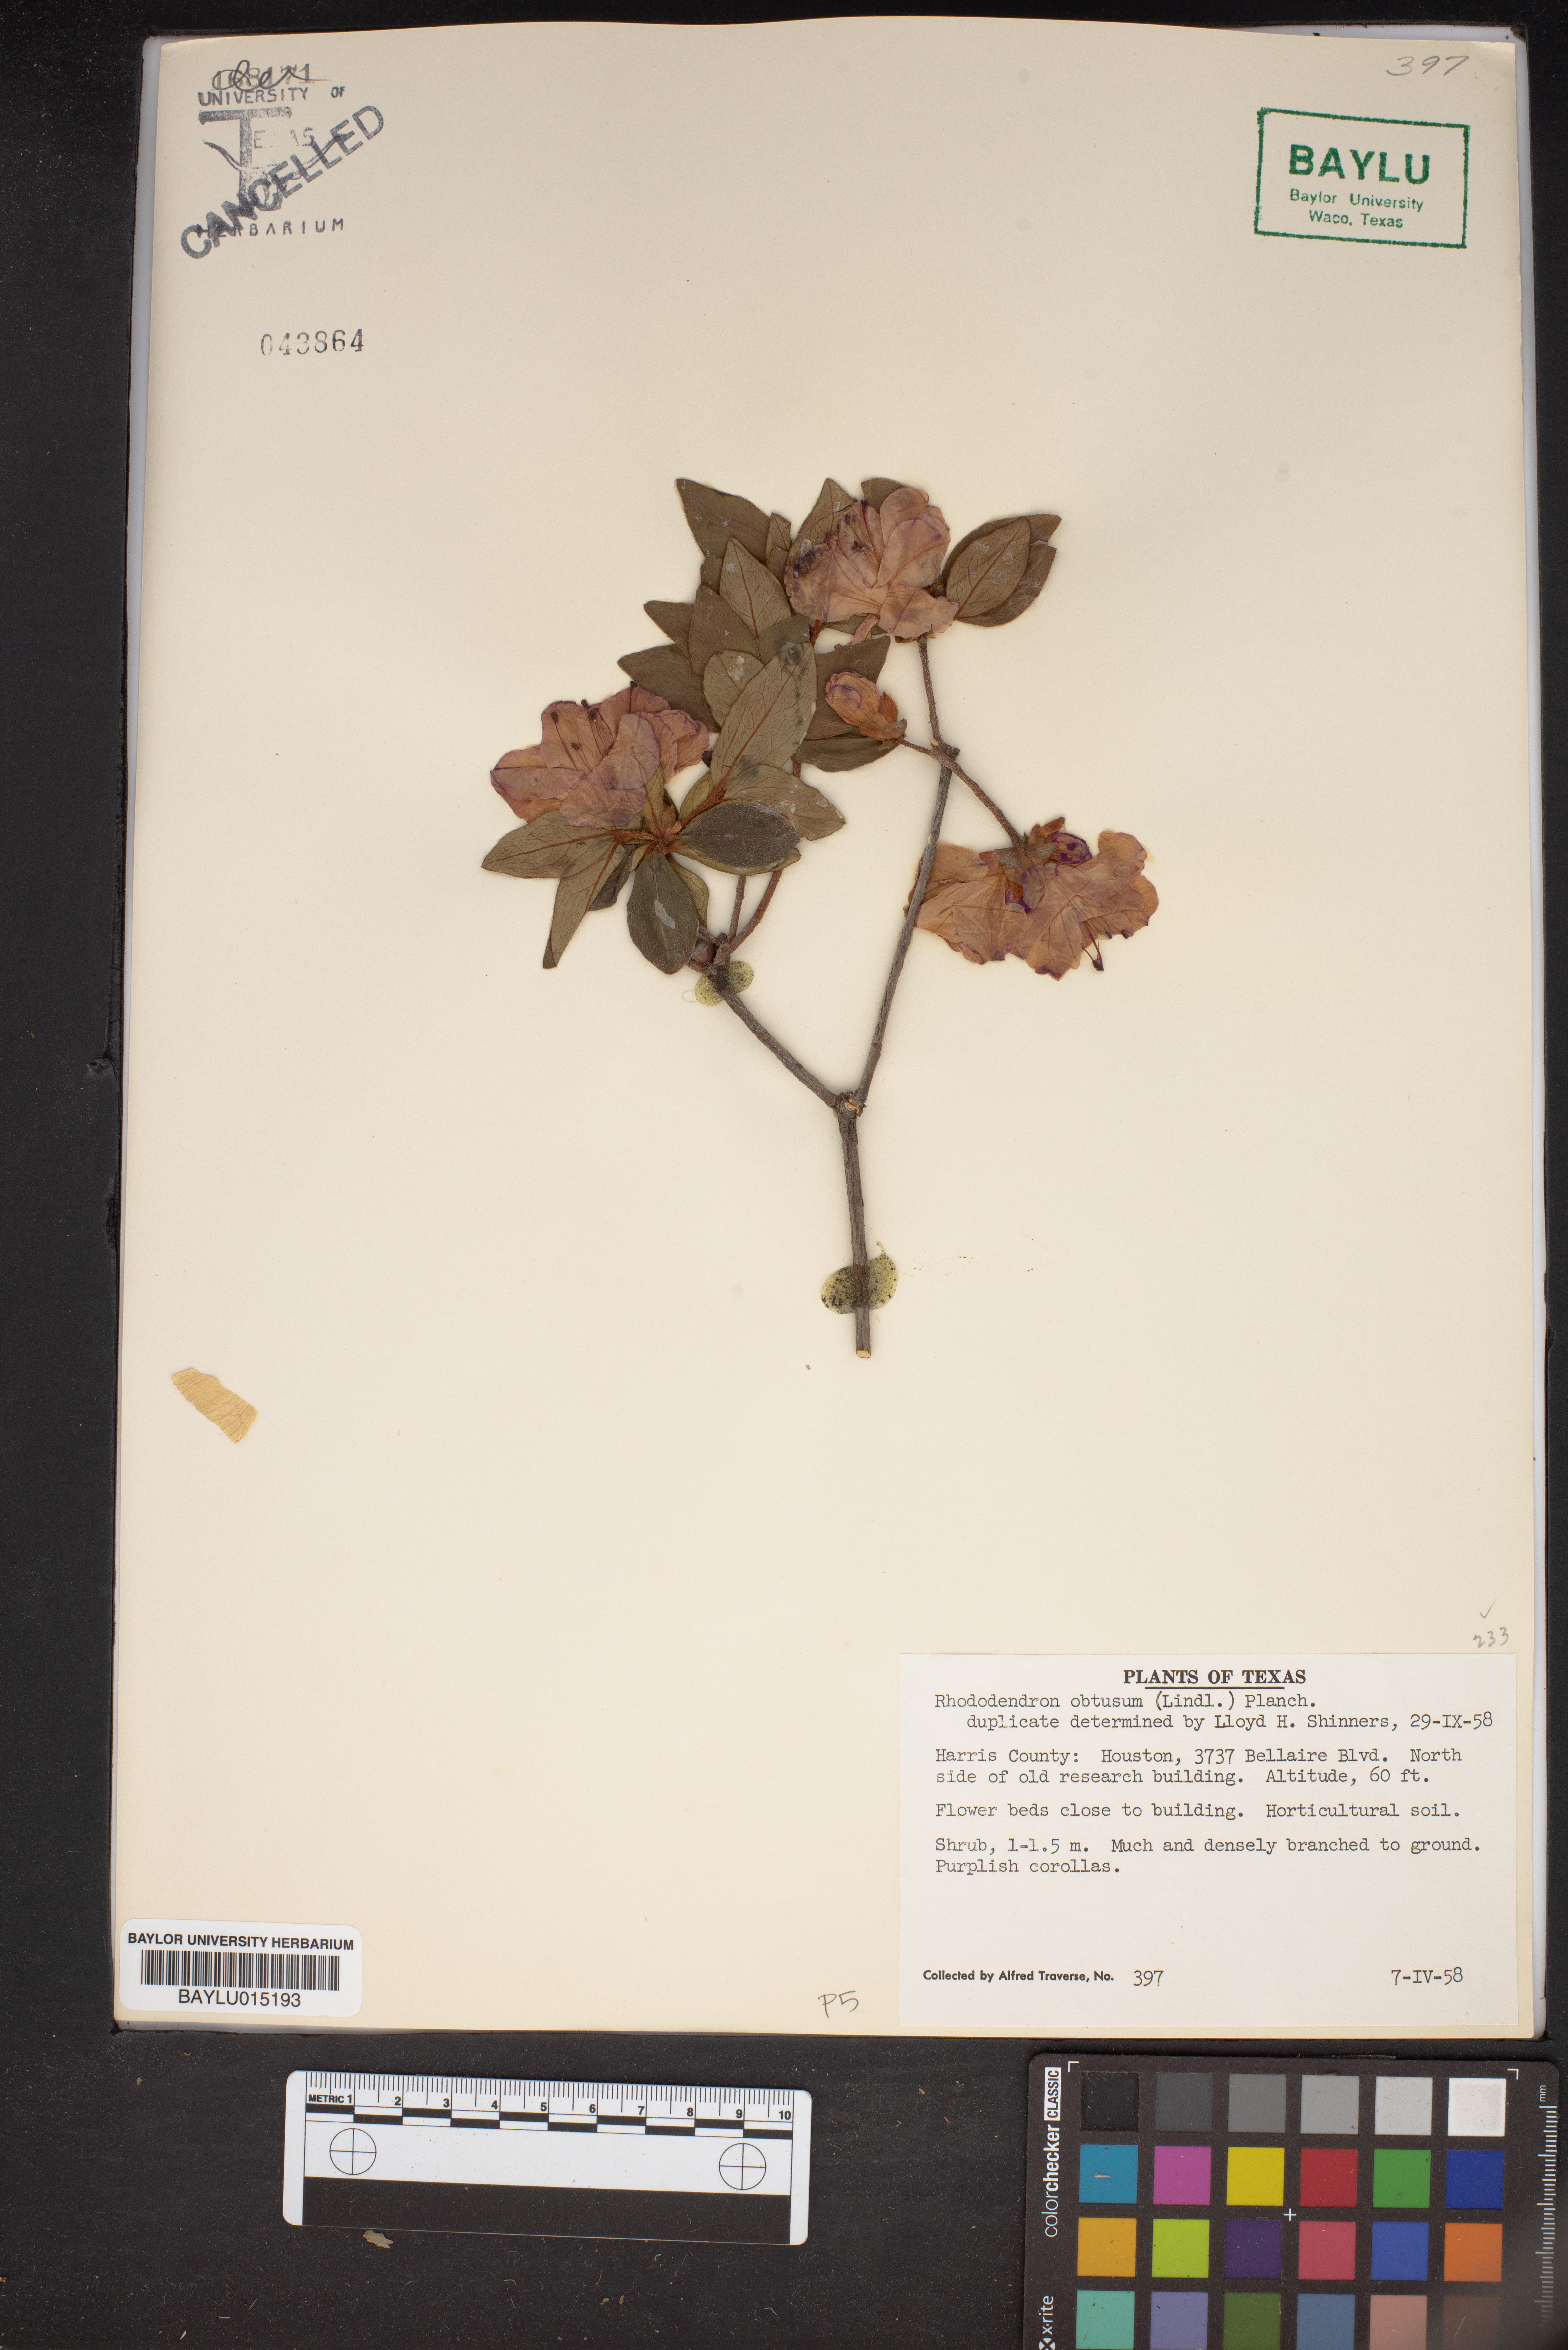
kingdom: Plantae
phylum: Tracheophyta
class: Magnoliopsida
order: Ericales
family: Ericaceae
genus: Rhododendron
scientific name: Rhododendron ponticum
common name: Rhododendron
